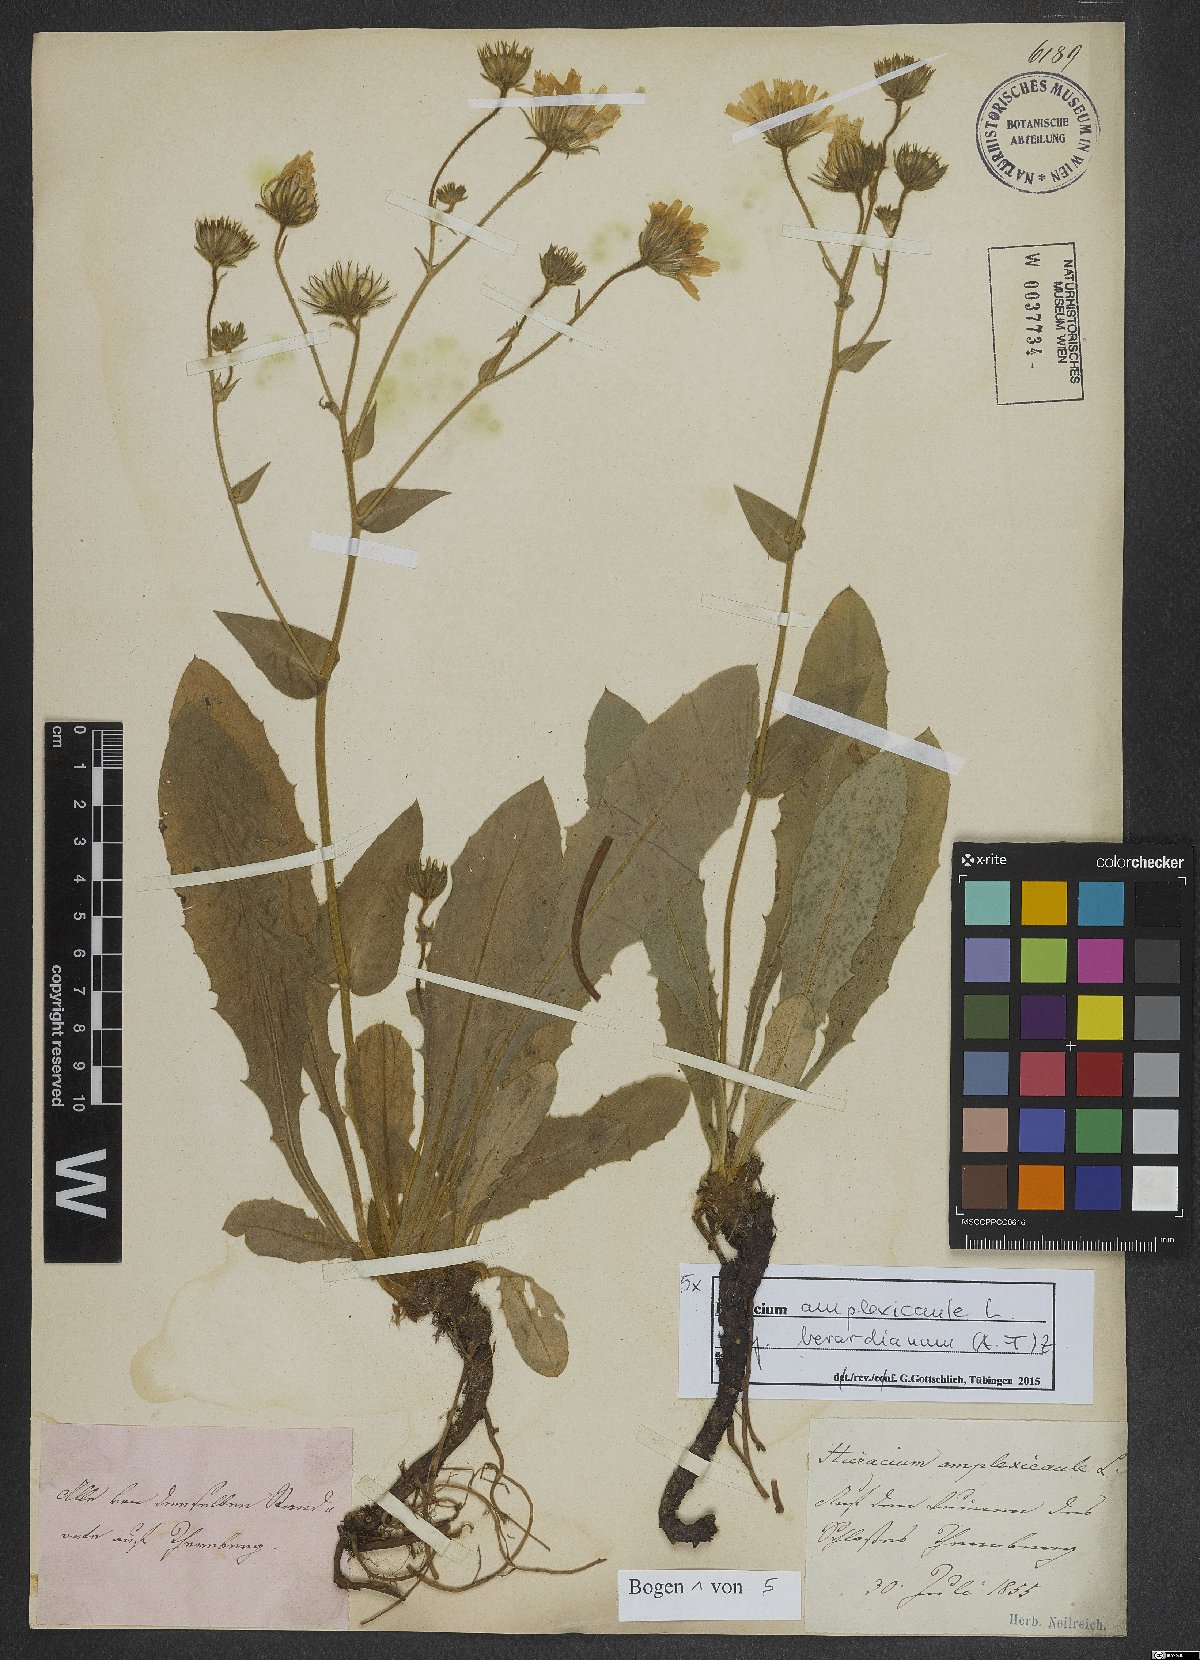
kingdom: Plantae
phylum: Tracheophyta
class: Magnoliopsida
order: Asterales
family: Asteraceae
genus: Hieracium
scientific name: Hieracium amplexicaule
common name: Sticky hawkweed
